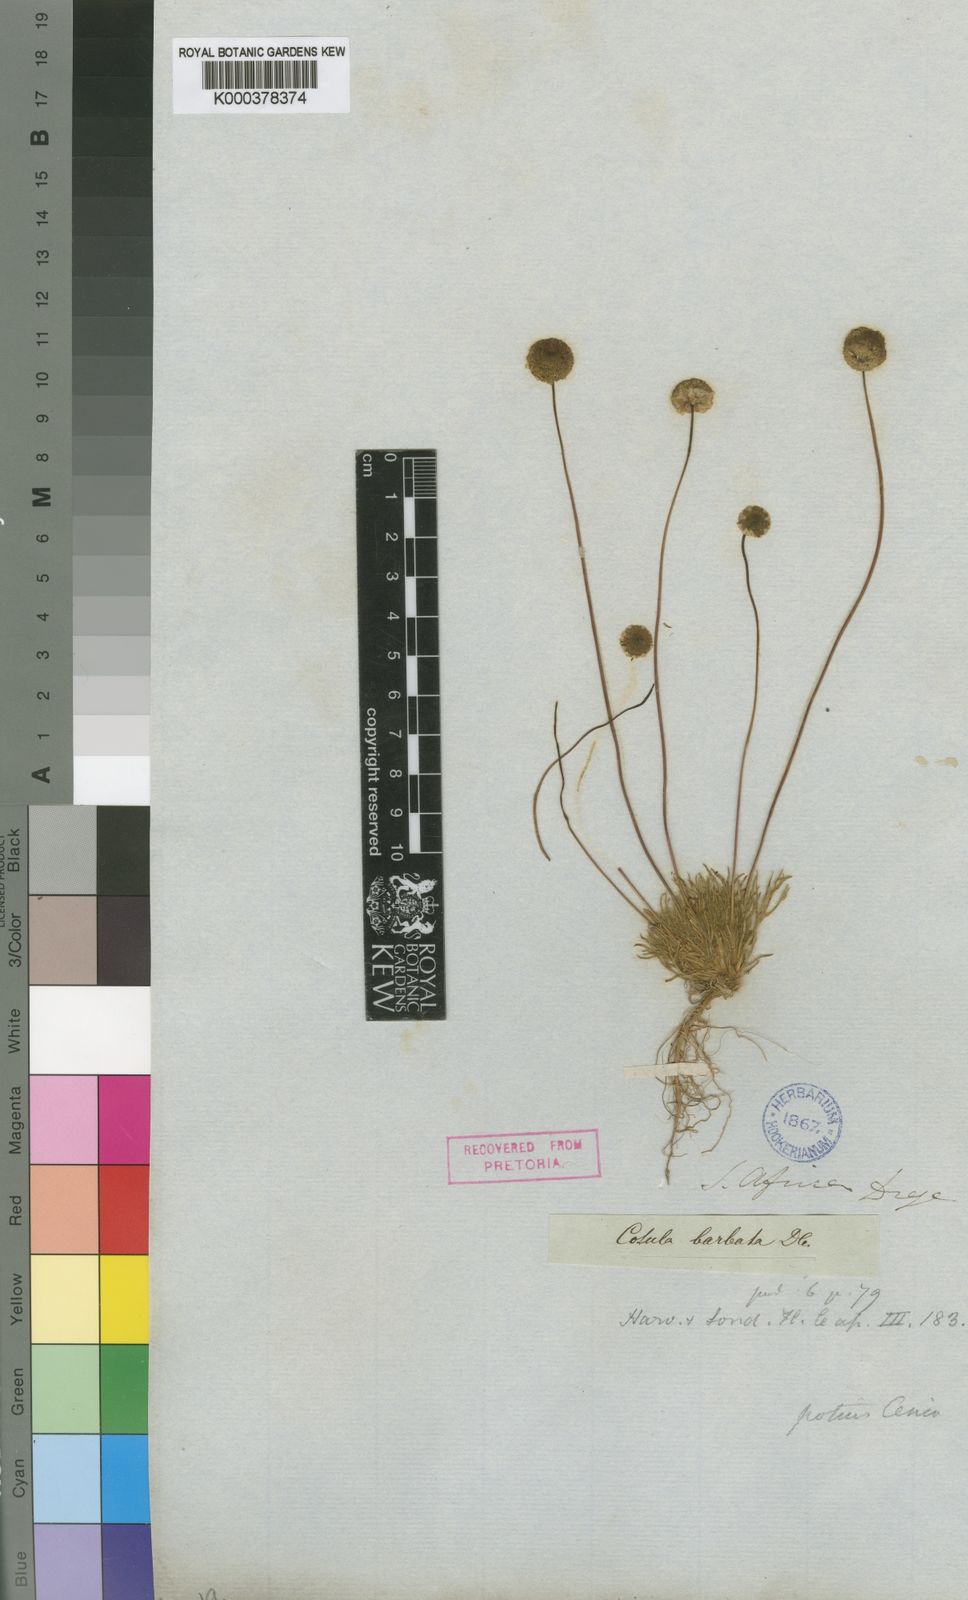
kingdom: Plantae
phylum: Tracheophyta
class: Magnoliopsida
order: Asterales
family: Asteraceae
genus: Cotula
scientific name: Cotula barbata
